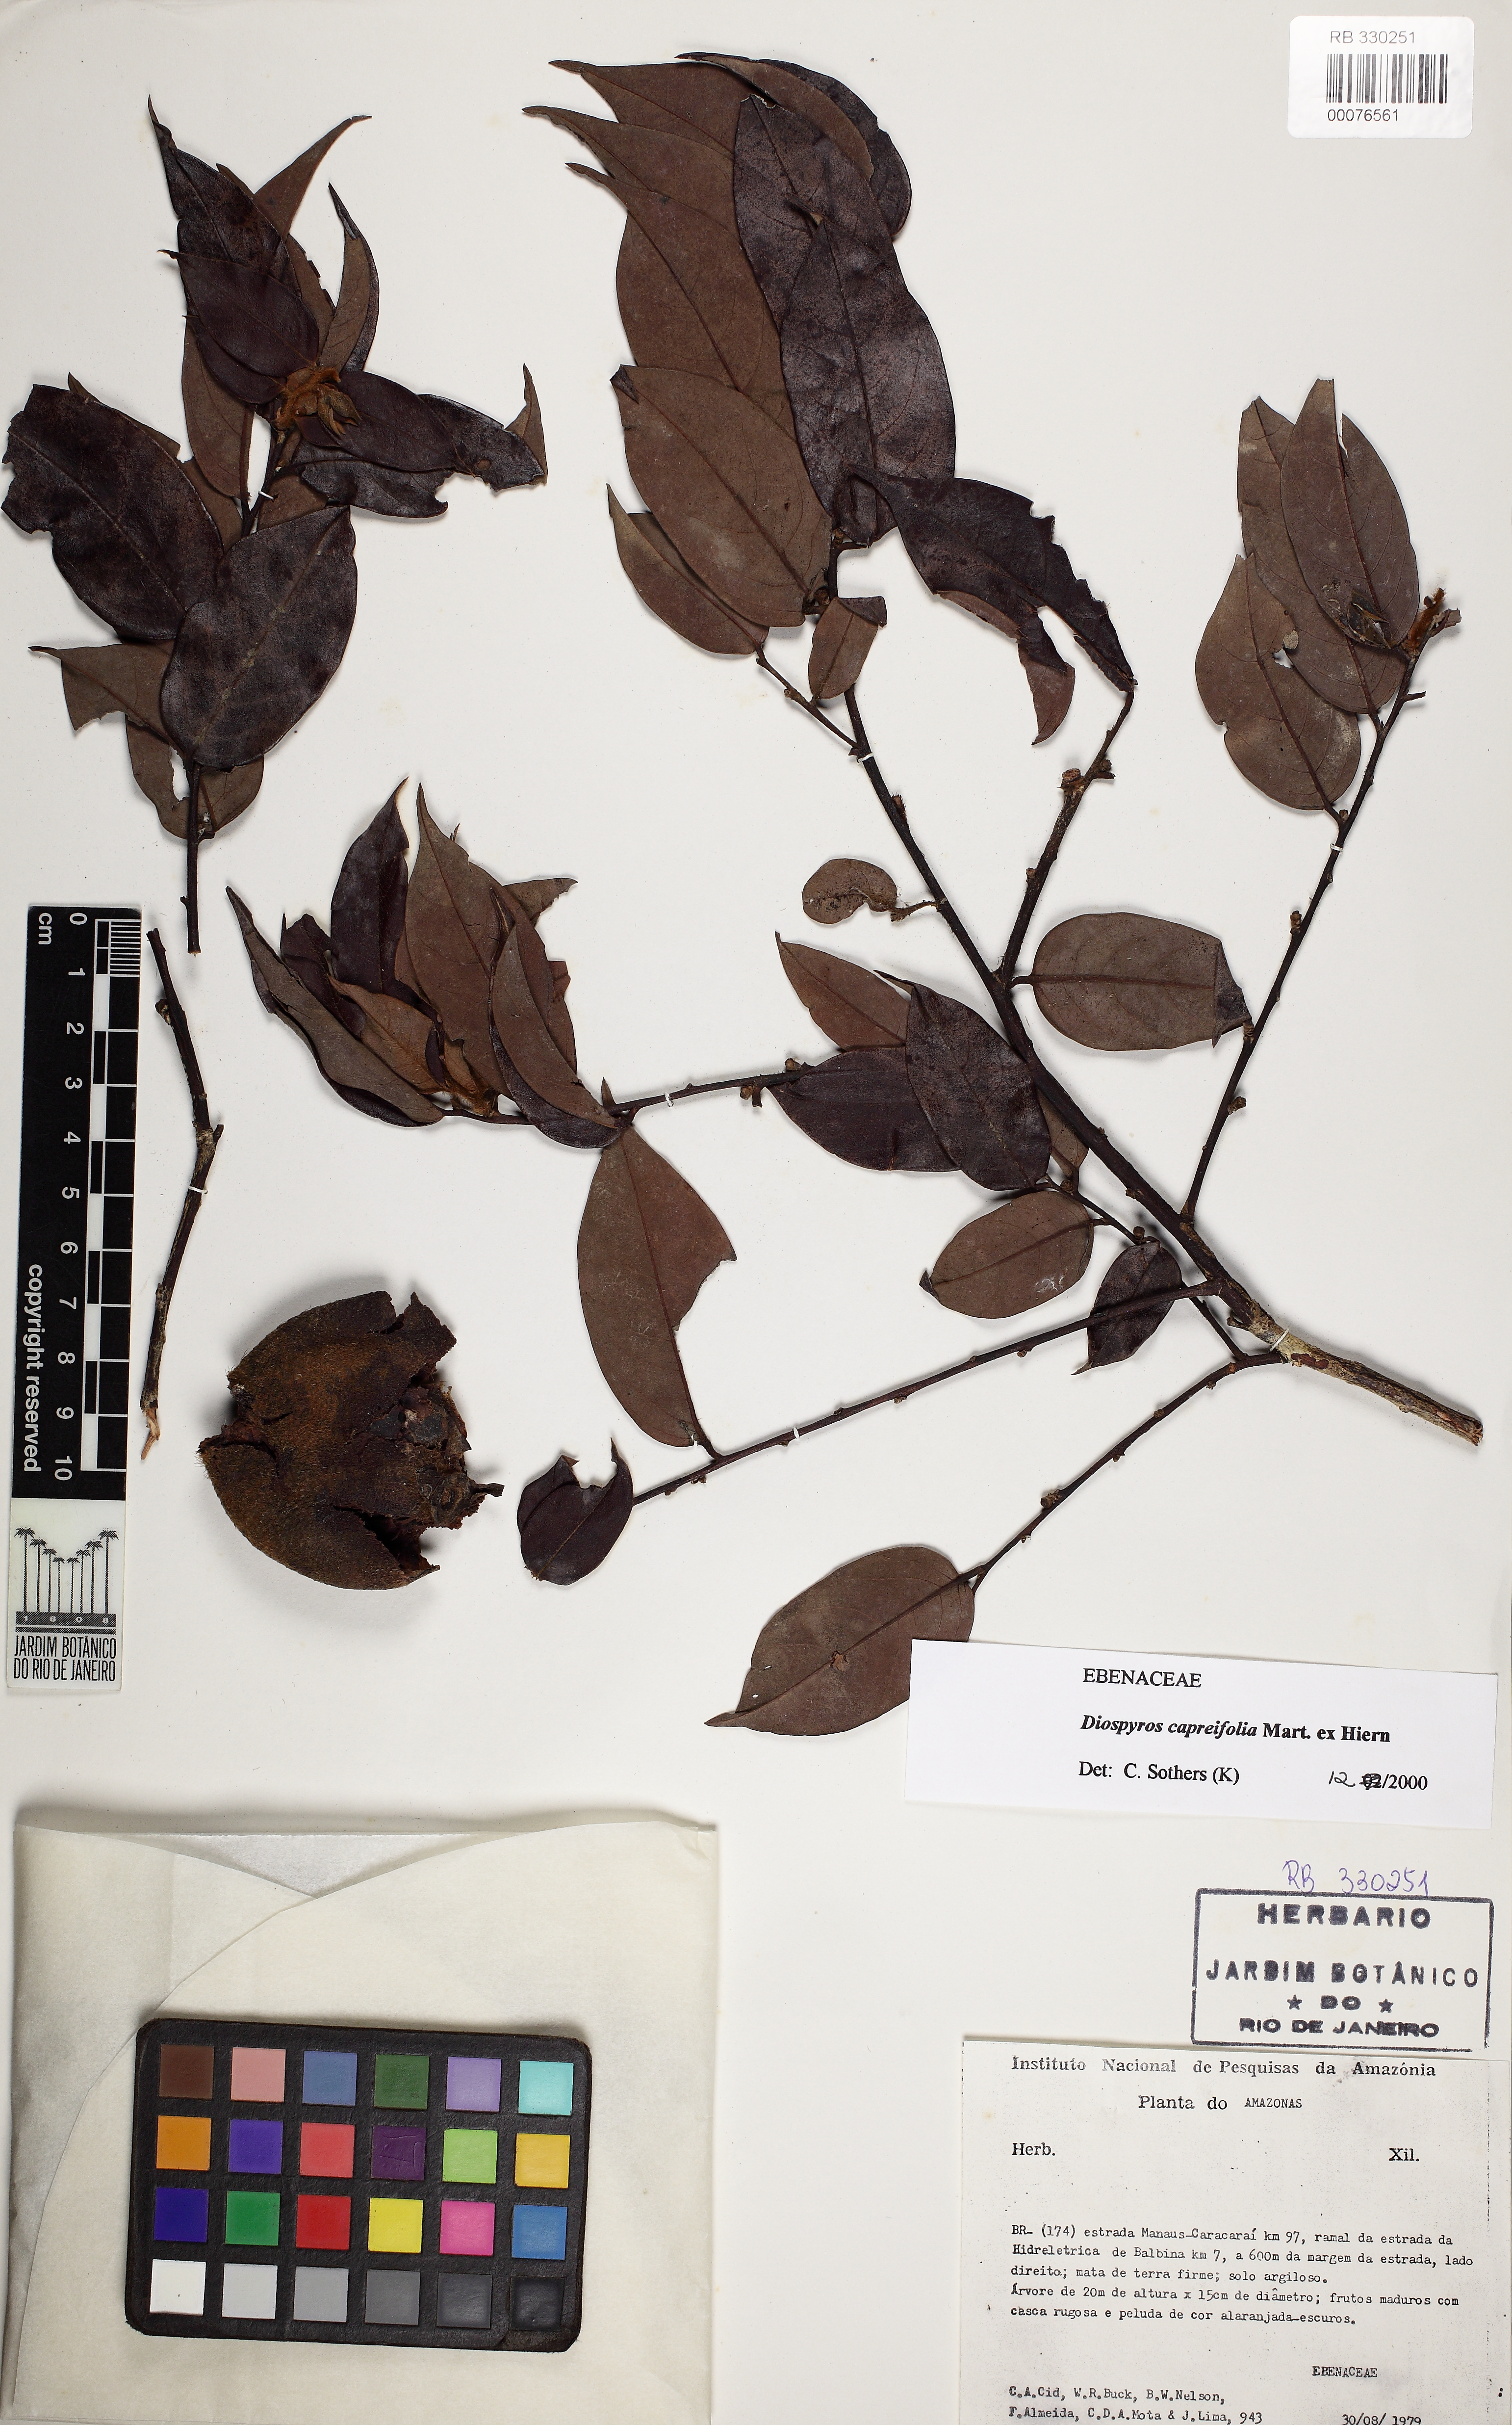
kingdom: Plantae
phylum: Tracheophyta
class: Magnoliopsida
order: Ericales
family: Ebenaceae
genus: Diospyros
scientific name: Diospyros capreifolia
